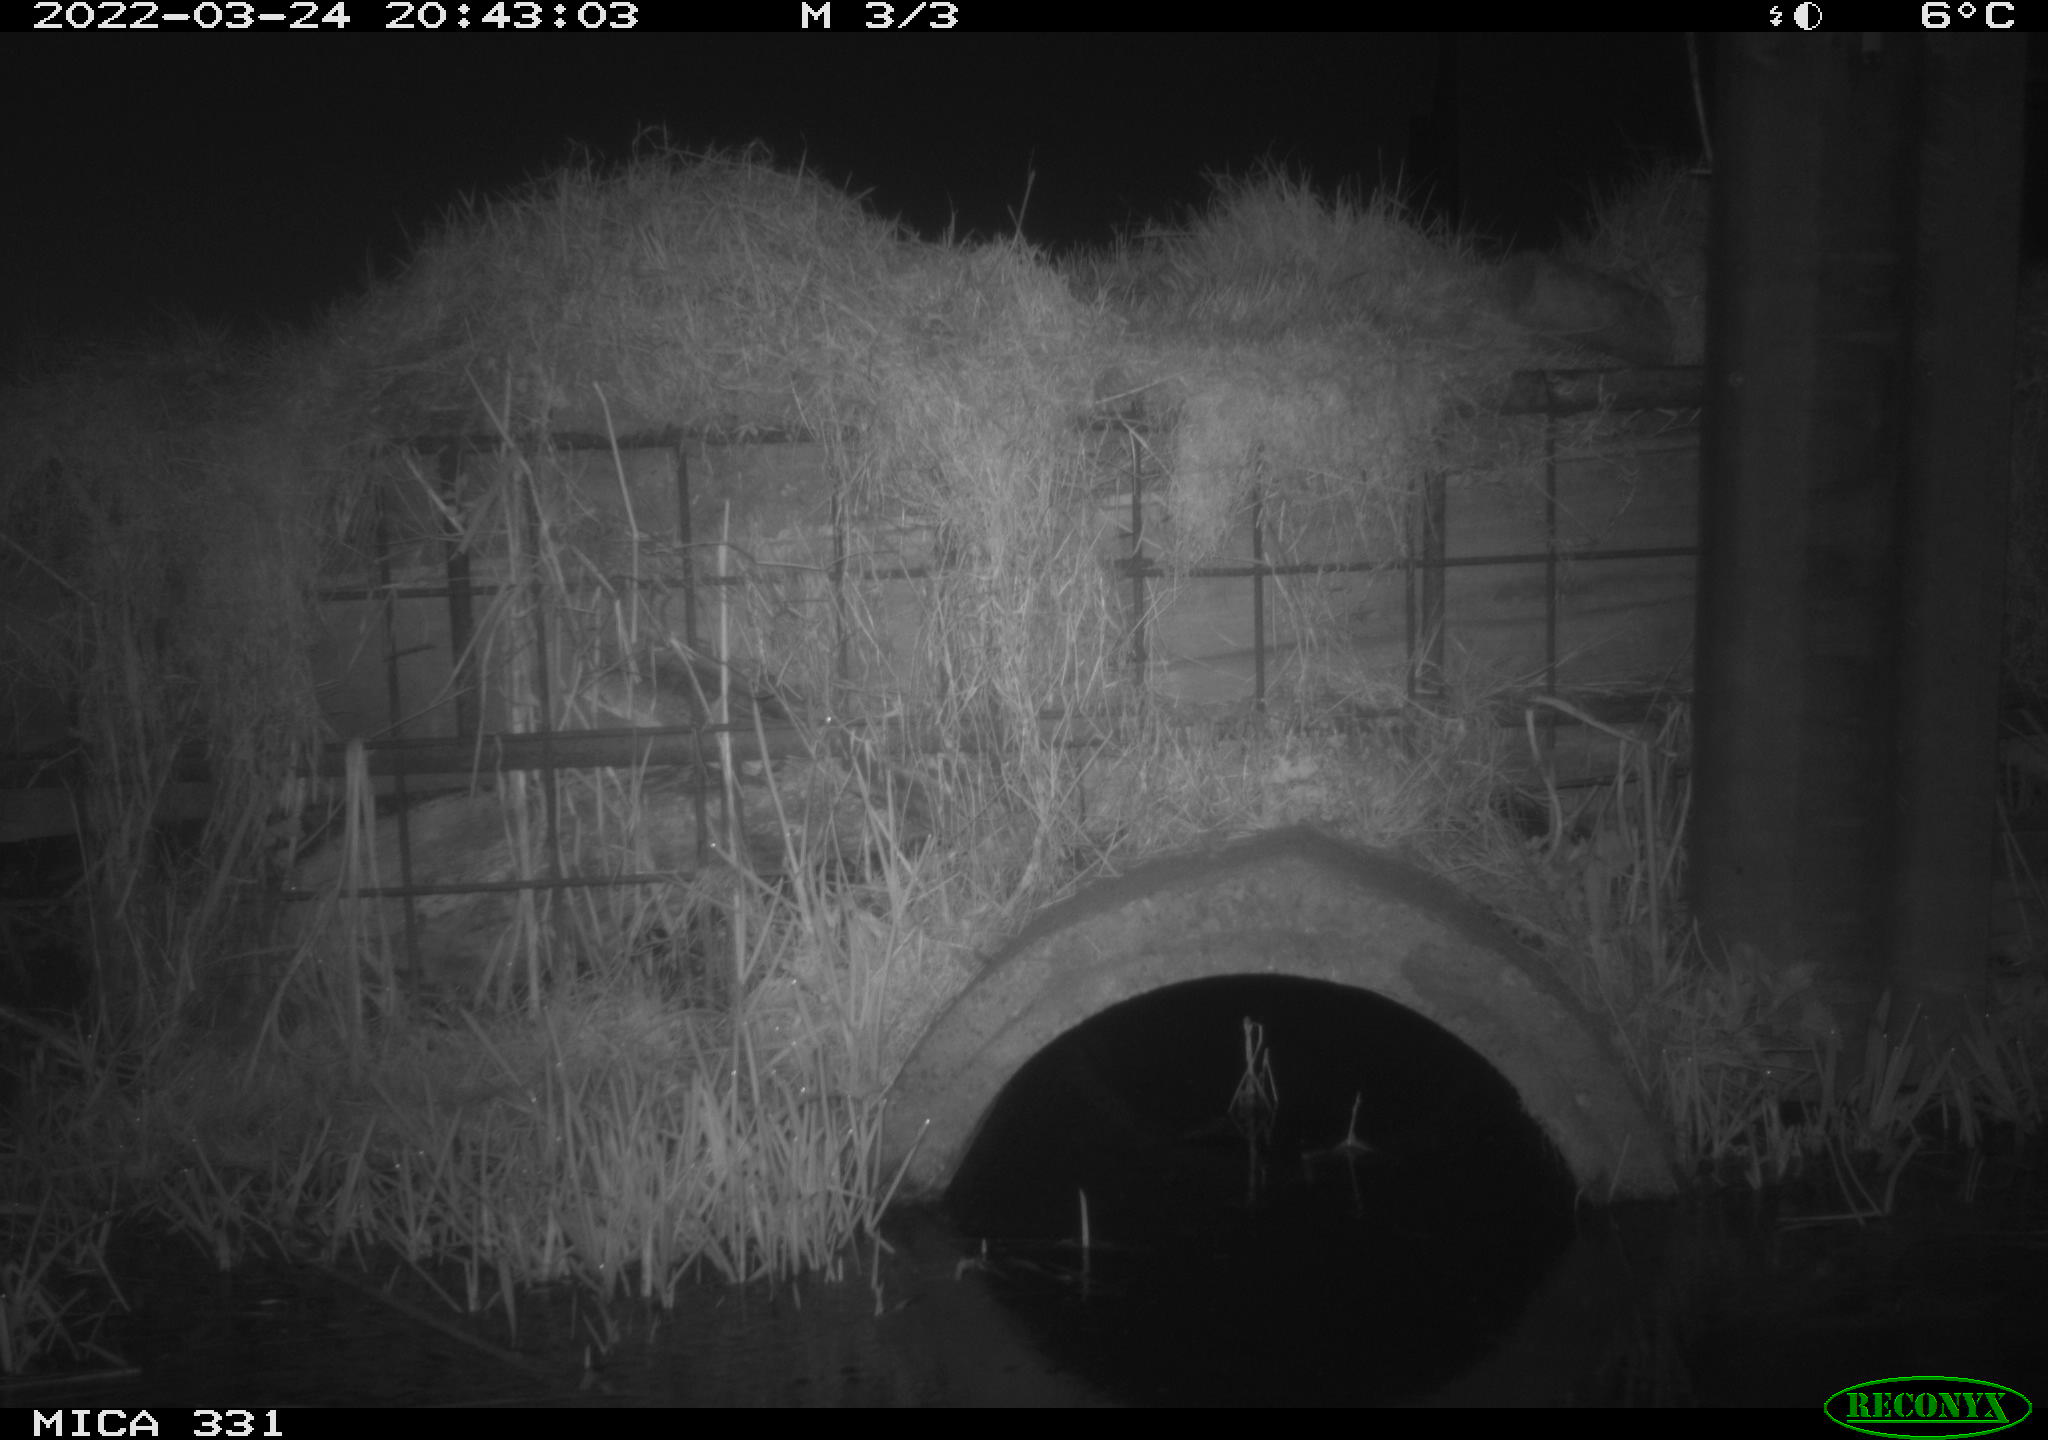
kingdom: Animalia
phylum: Chordata
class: Mammalia
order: Rodentia
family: Muridae
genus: Rattus
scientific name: Rattus norvegicus
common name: Brown rat
